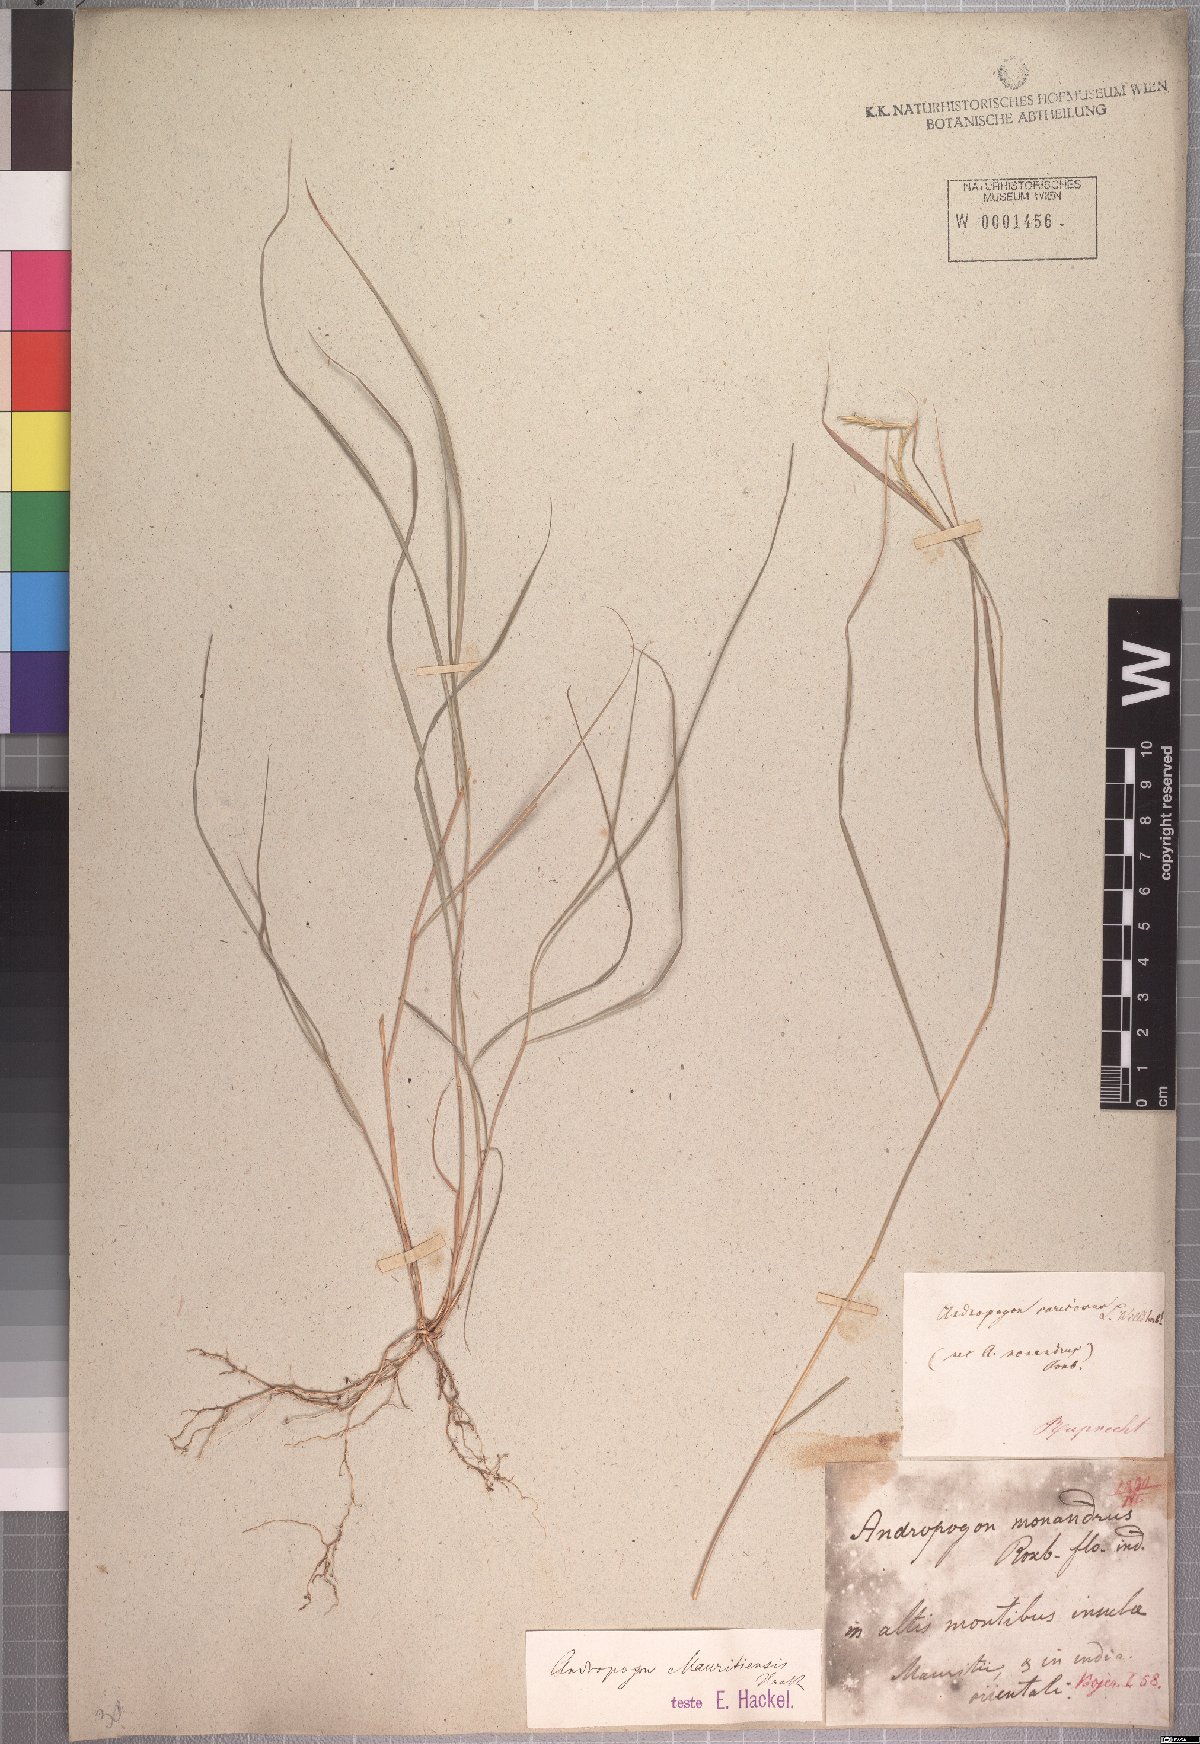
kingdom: Plantae
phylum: Tracheophyta
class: Liliopsida
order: Poales
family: Poaceae
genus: Pogonatherum
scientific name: Pogonatherum crinitum
